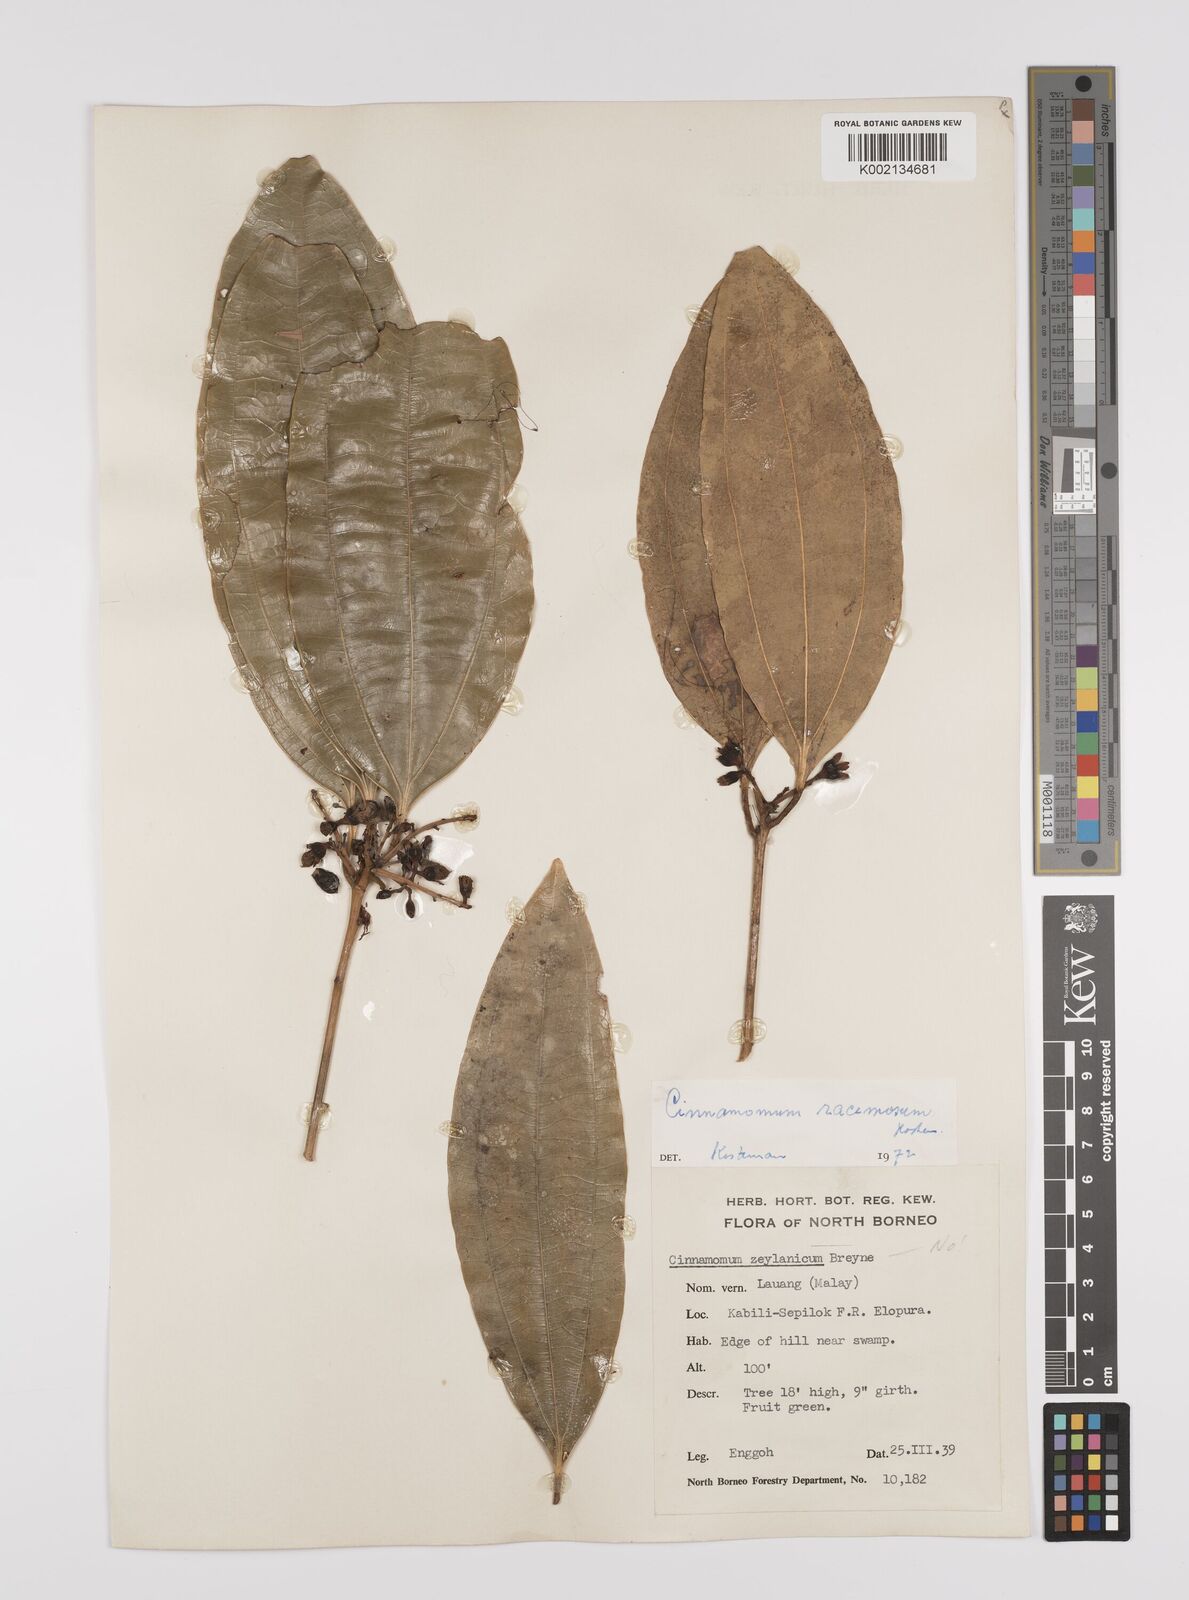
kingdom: Plantae
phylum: Tracheophyta
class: Magnoliopsida
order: Laurales
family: Lauraceae
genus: Cinnamomum
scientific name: Cinnamomum racemosum
